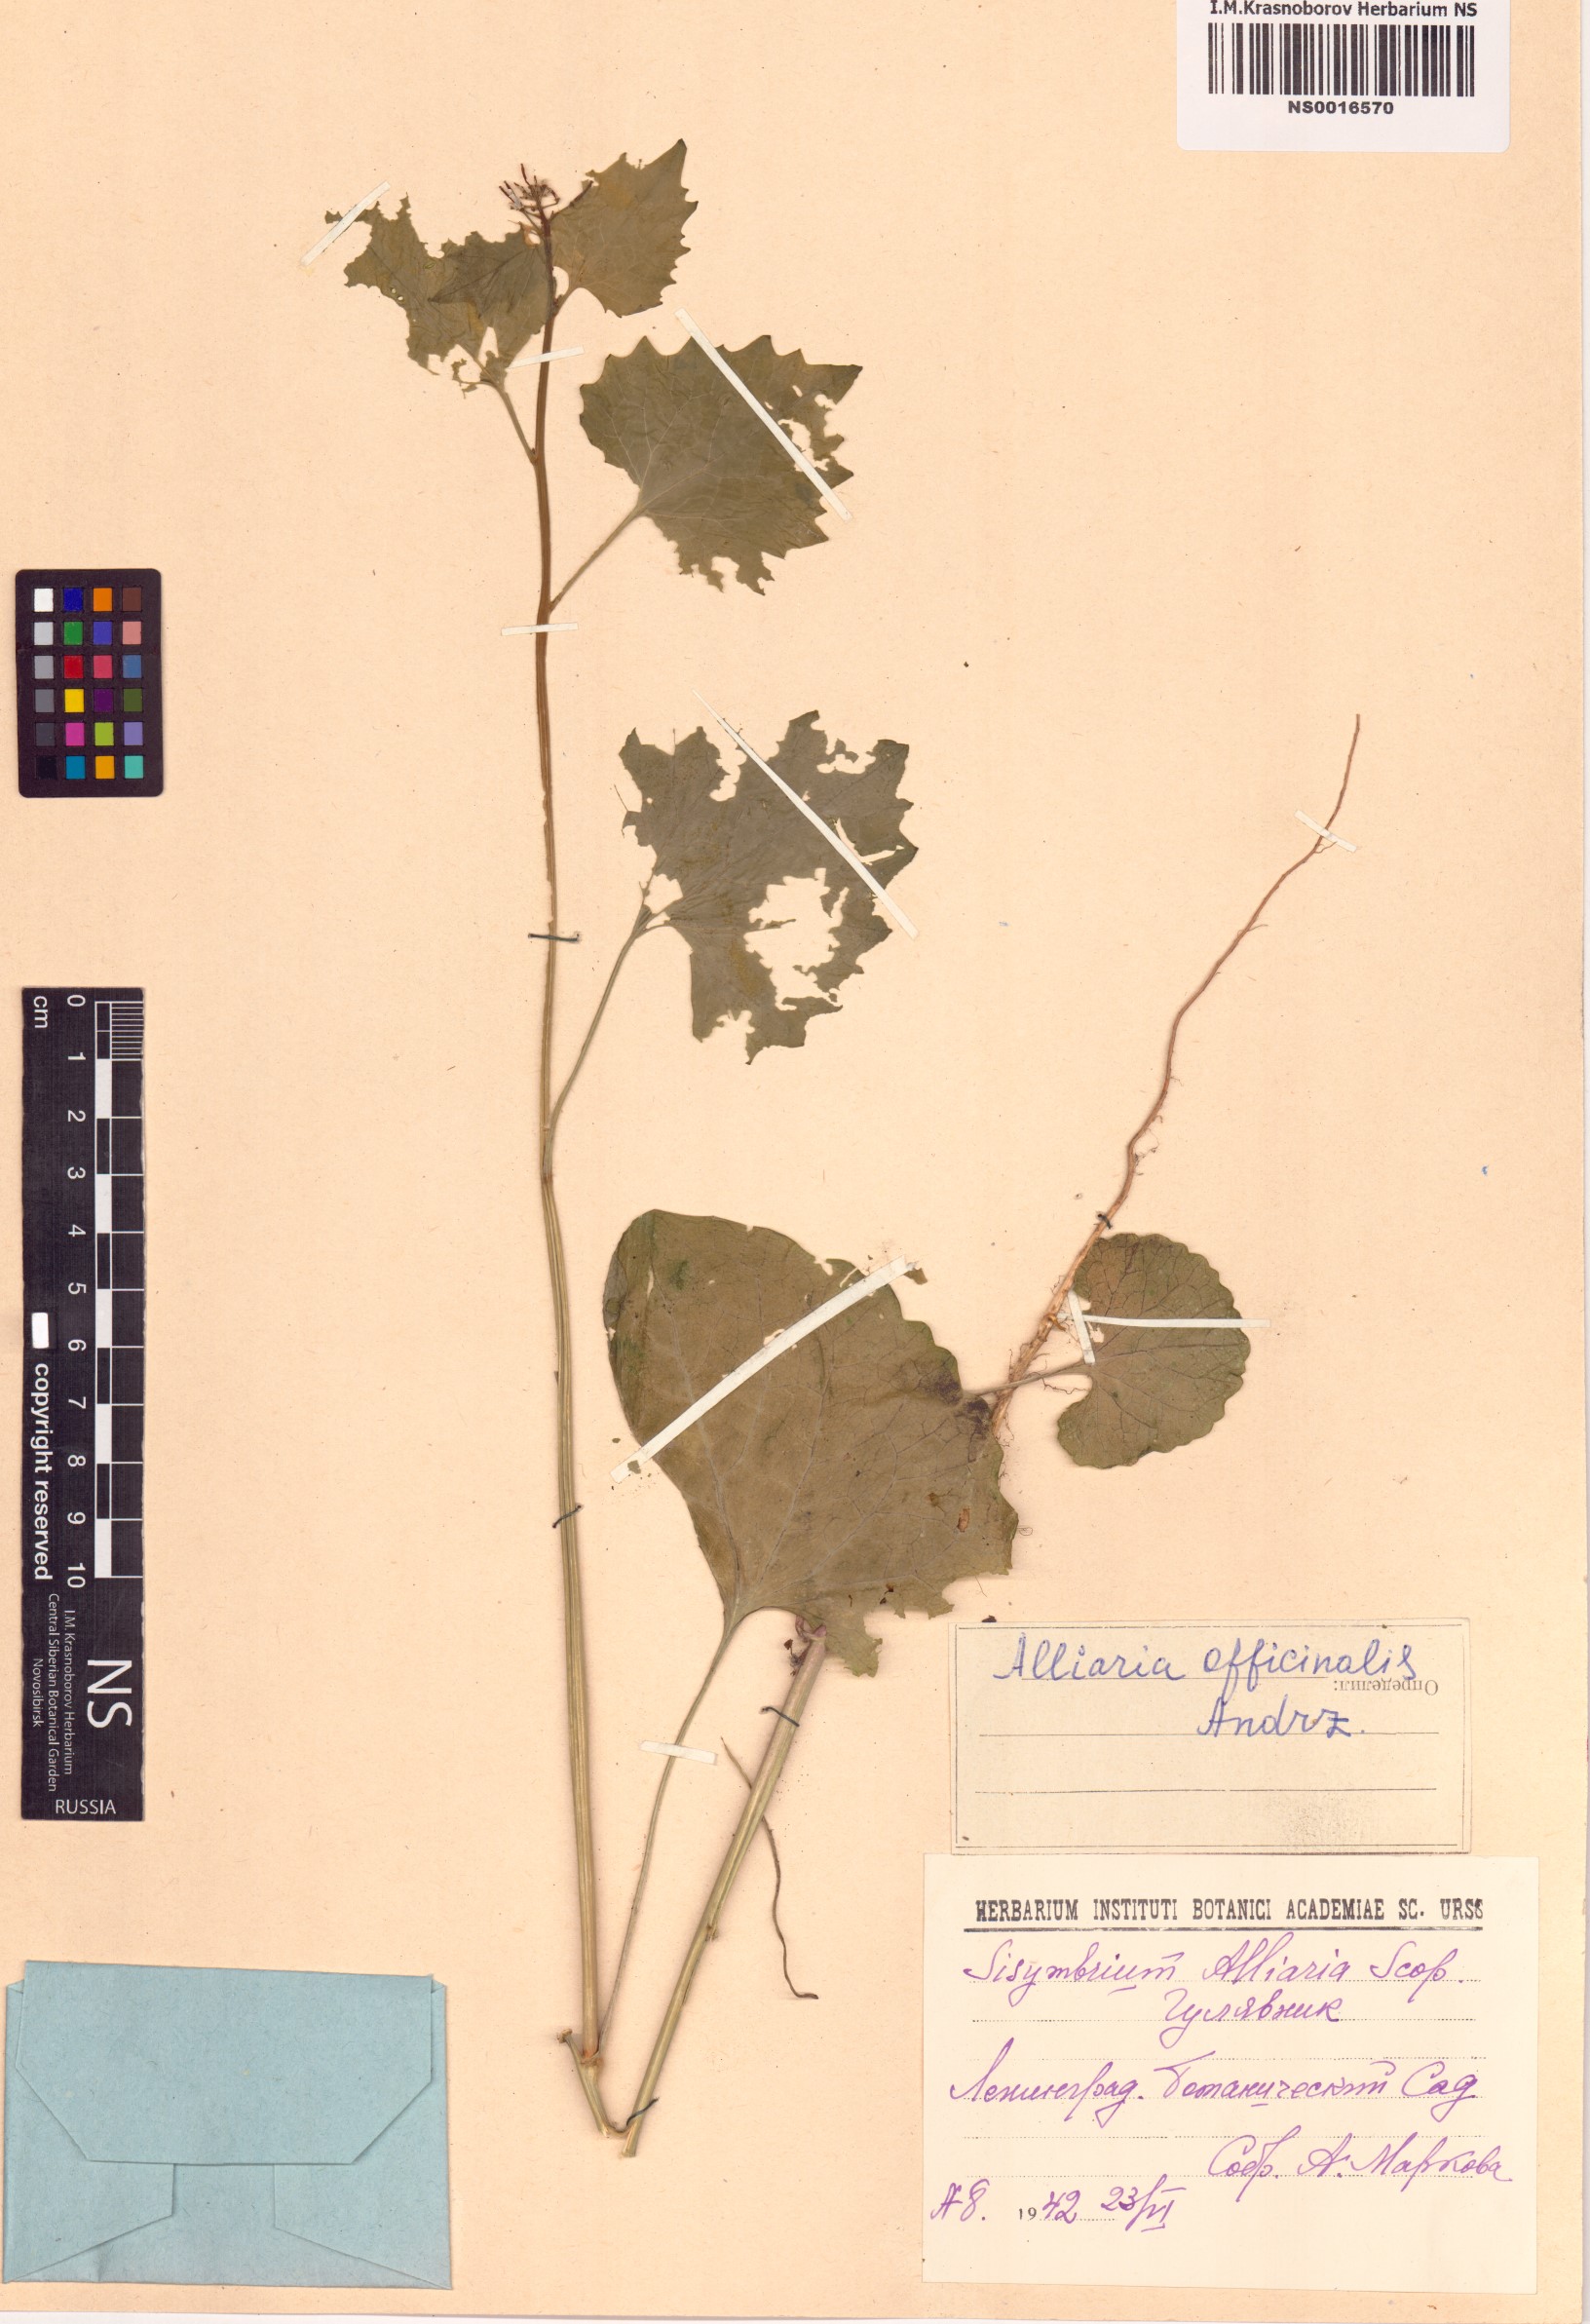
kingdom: Plantae
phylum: Tracheophyta
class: Magnoliopsida
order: Brassicales
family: Brassicaceae
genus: Alliaria
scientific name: Alliaria petiolata
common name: Garlic mustard
